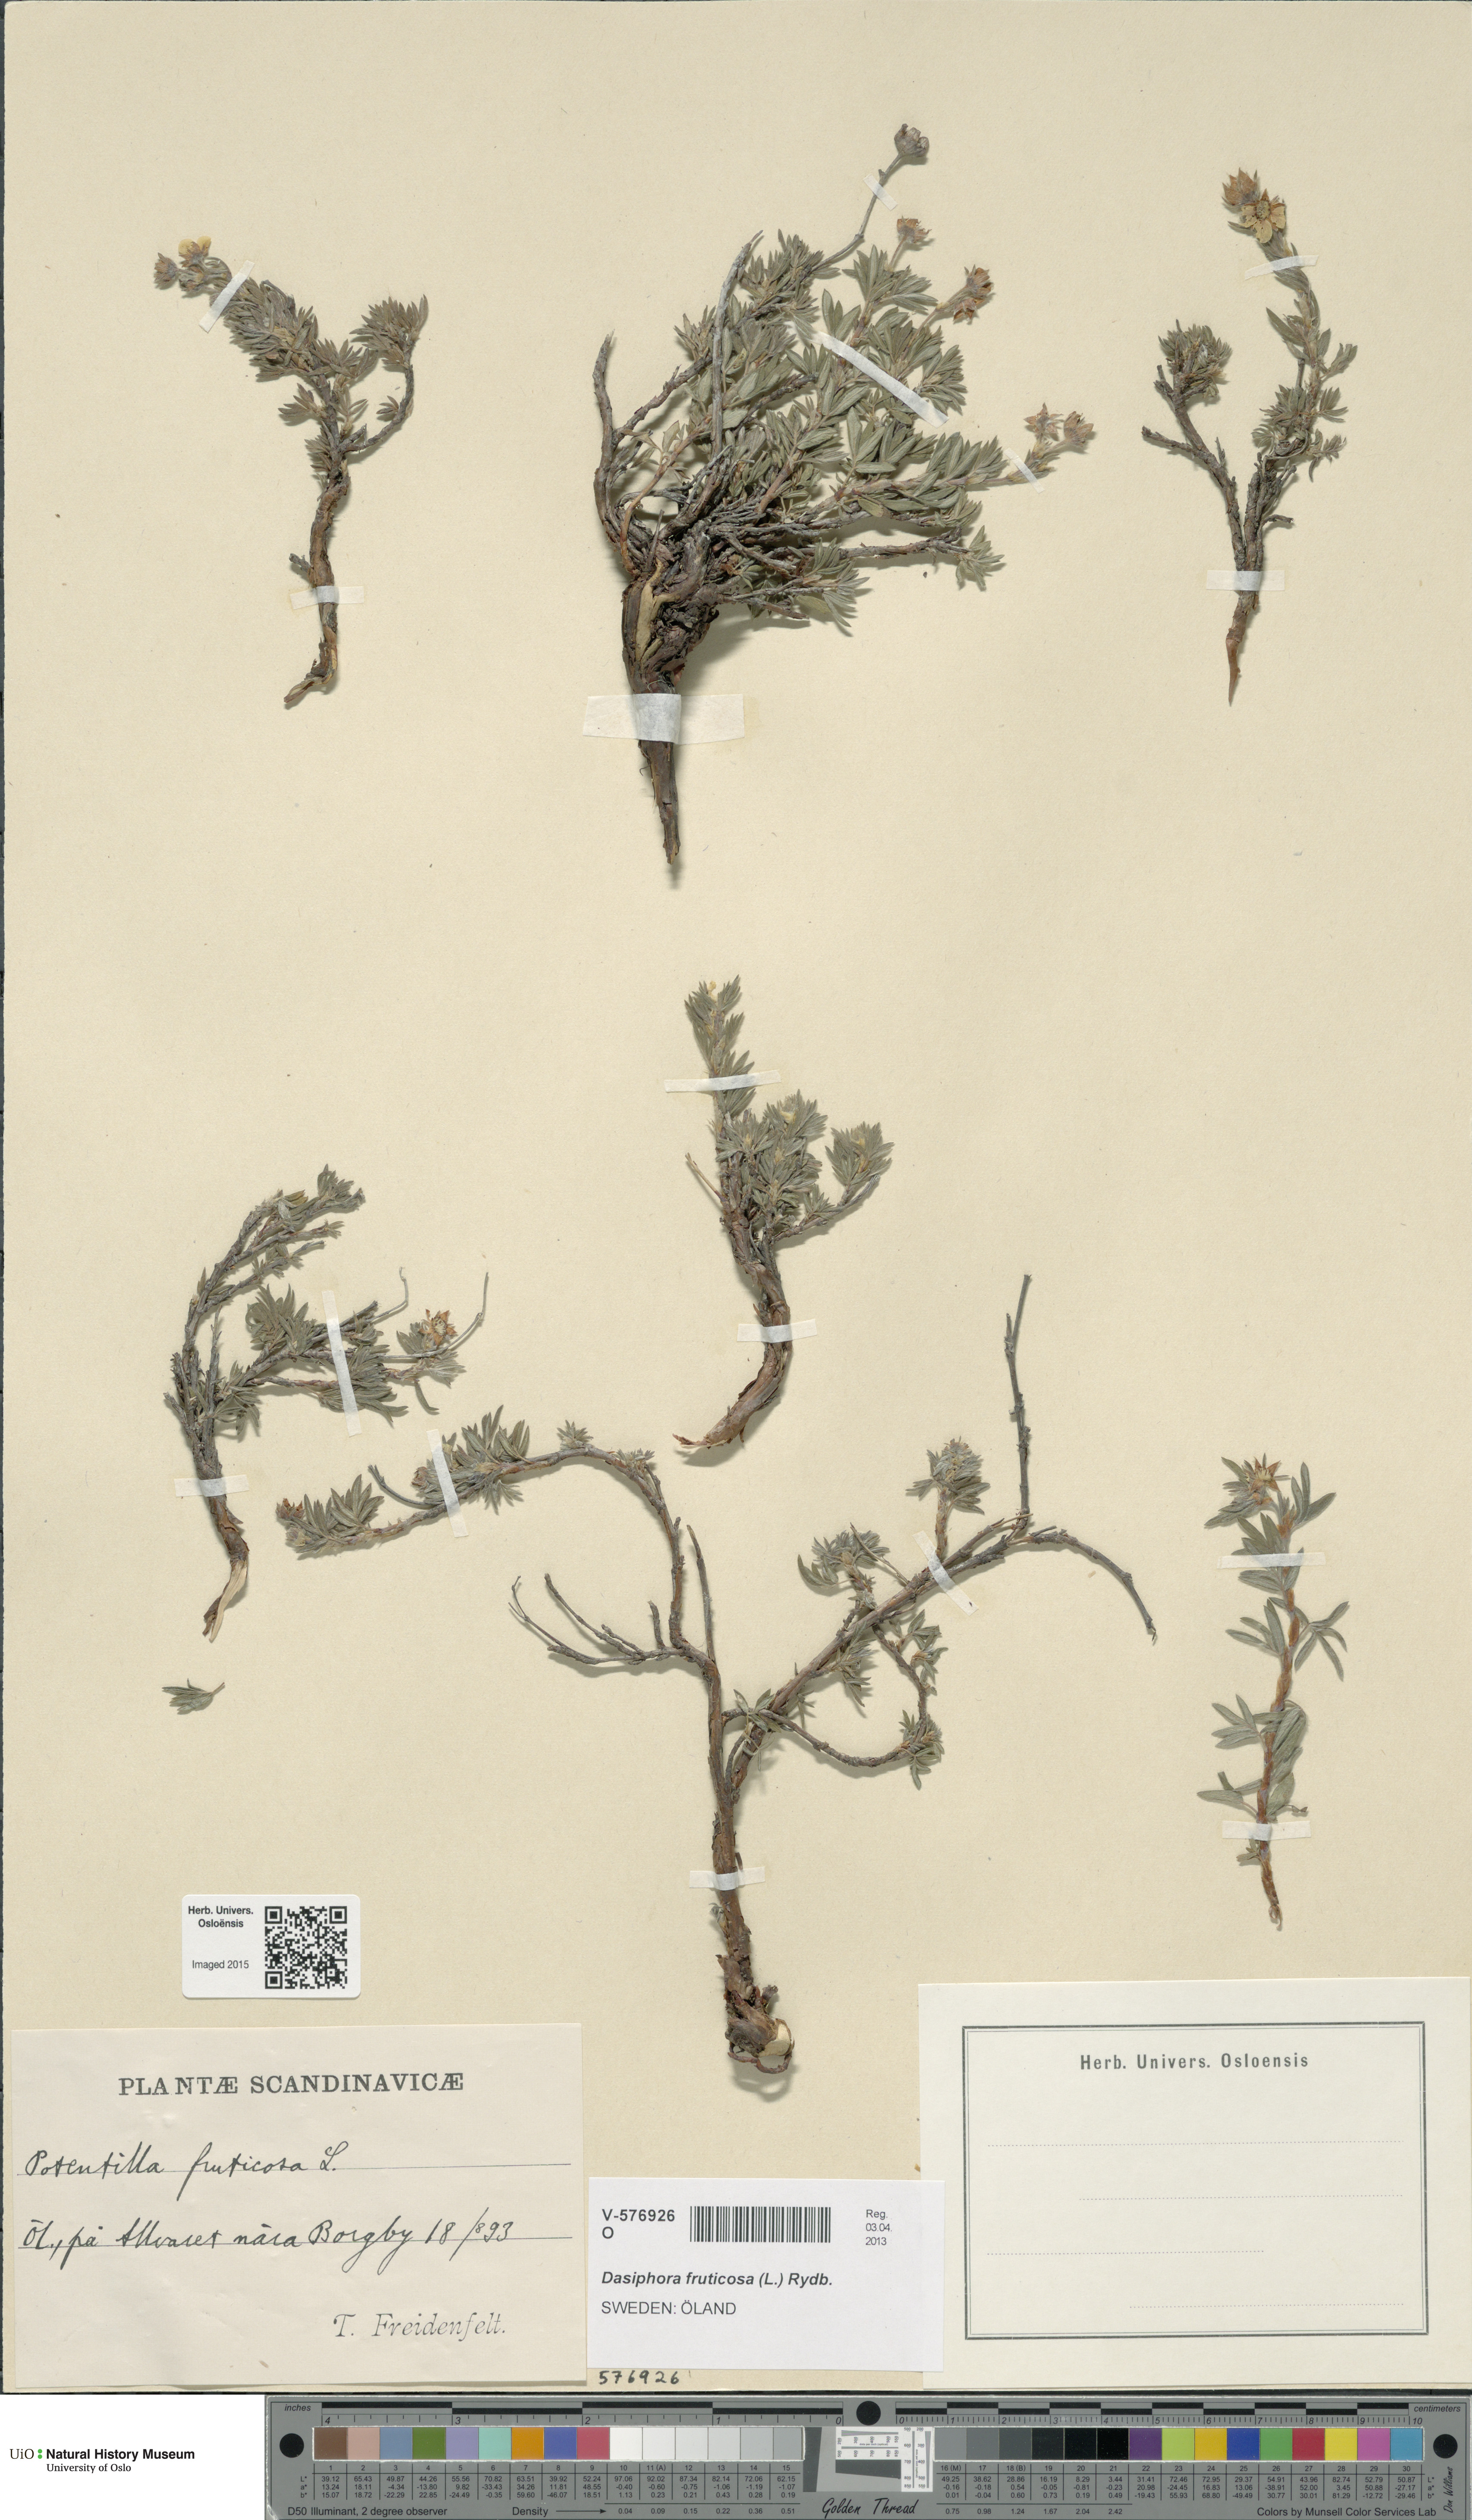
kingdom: Plantae
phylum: Tracheophyta
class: Magnoliopsida
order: Rosales
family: Rosaceae
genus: Dasiphora
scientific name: Dasiphora fruticosa
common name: Shrubby cinquefoil
